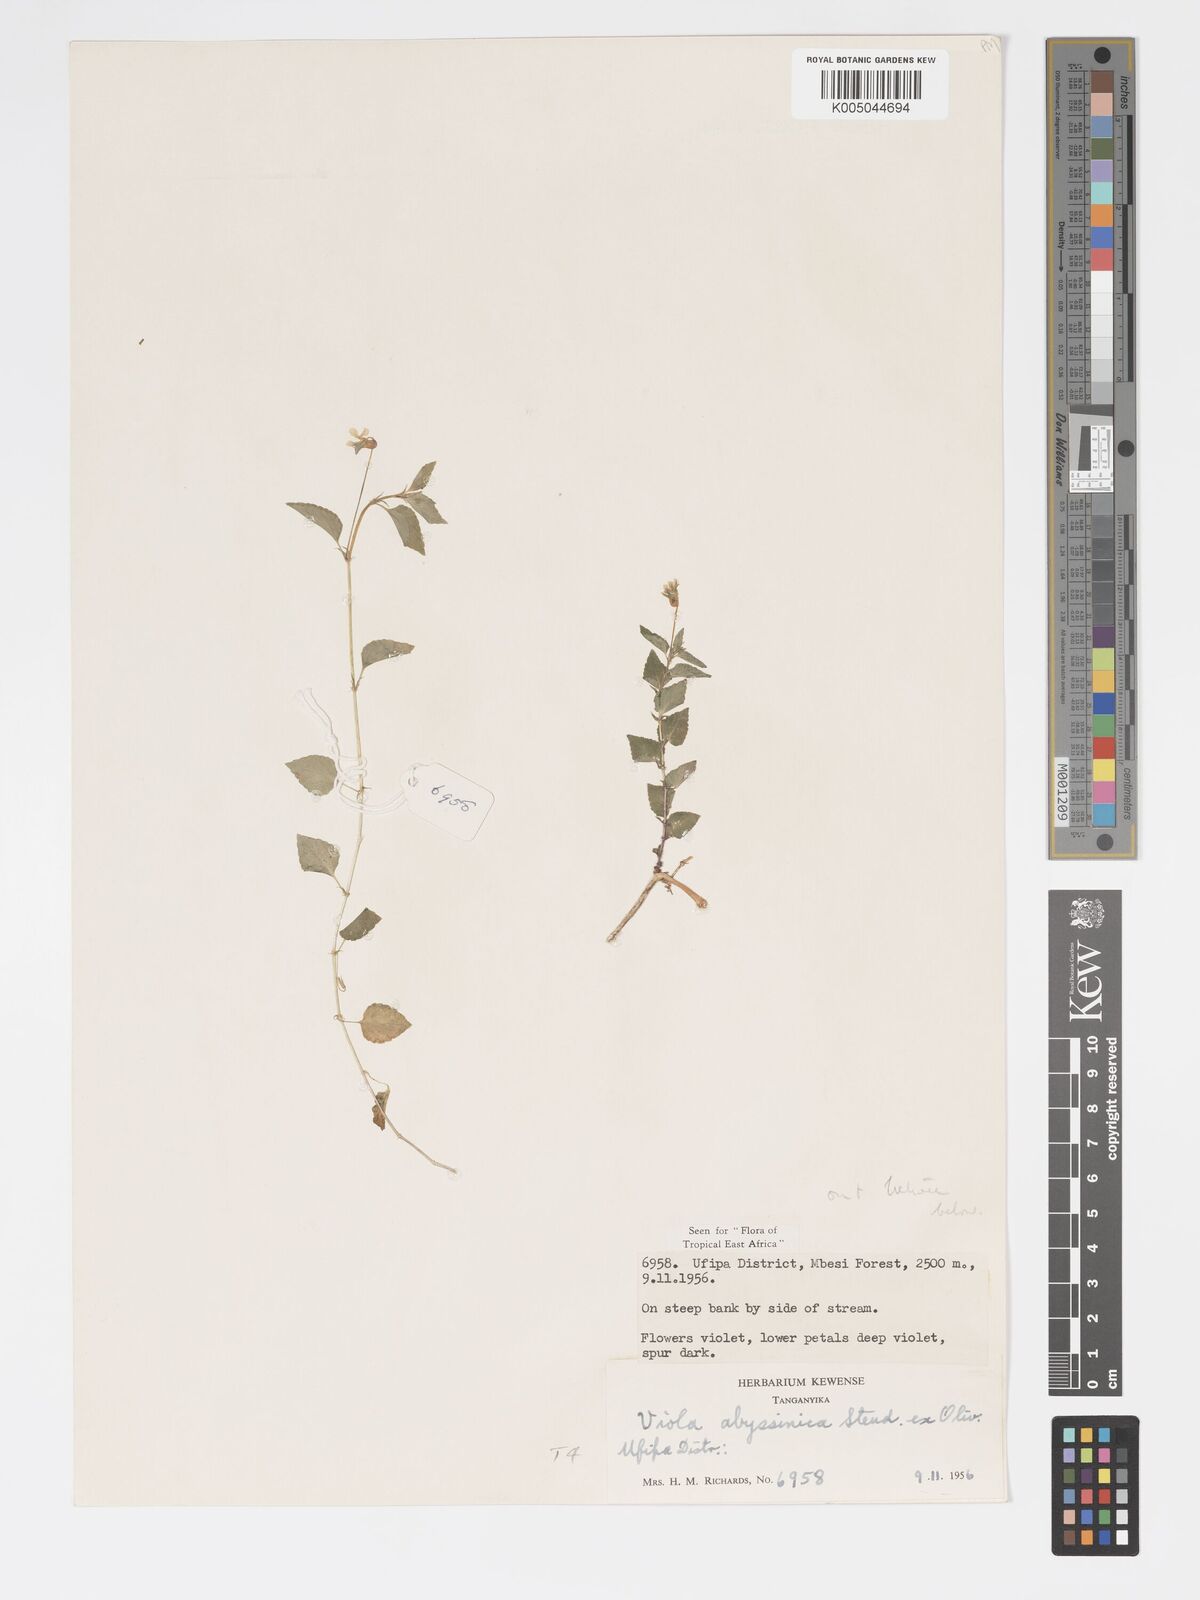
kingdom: Plantae
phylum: Tracheophyta
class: Magnoliopsida
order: Malpighiales
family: Violaceae
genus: Viola
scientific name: Viola abyssinica
